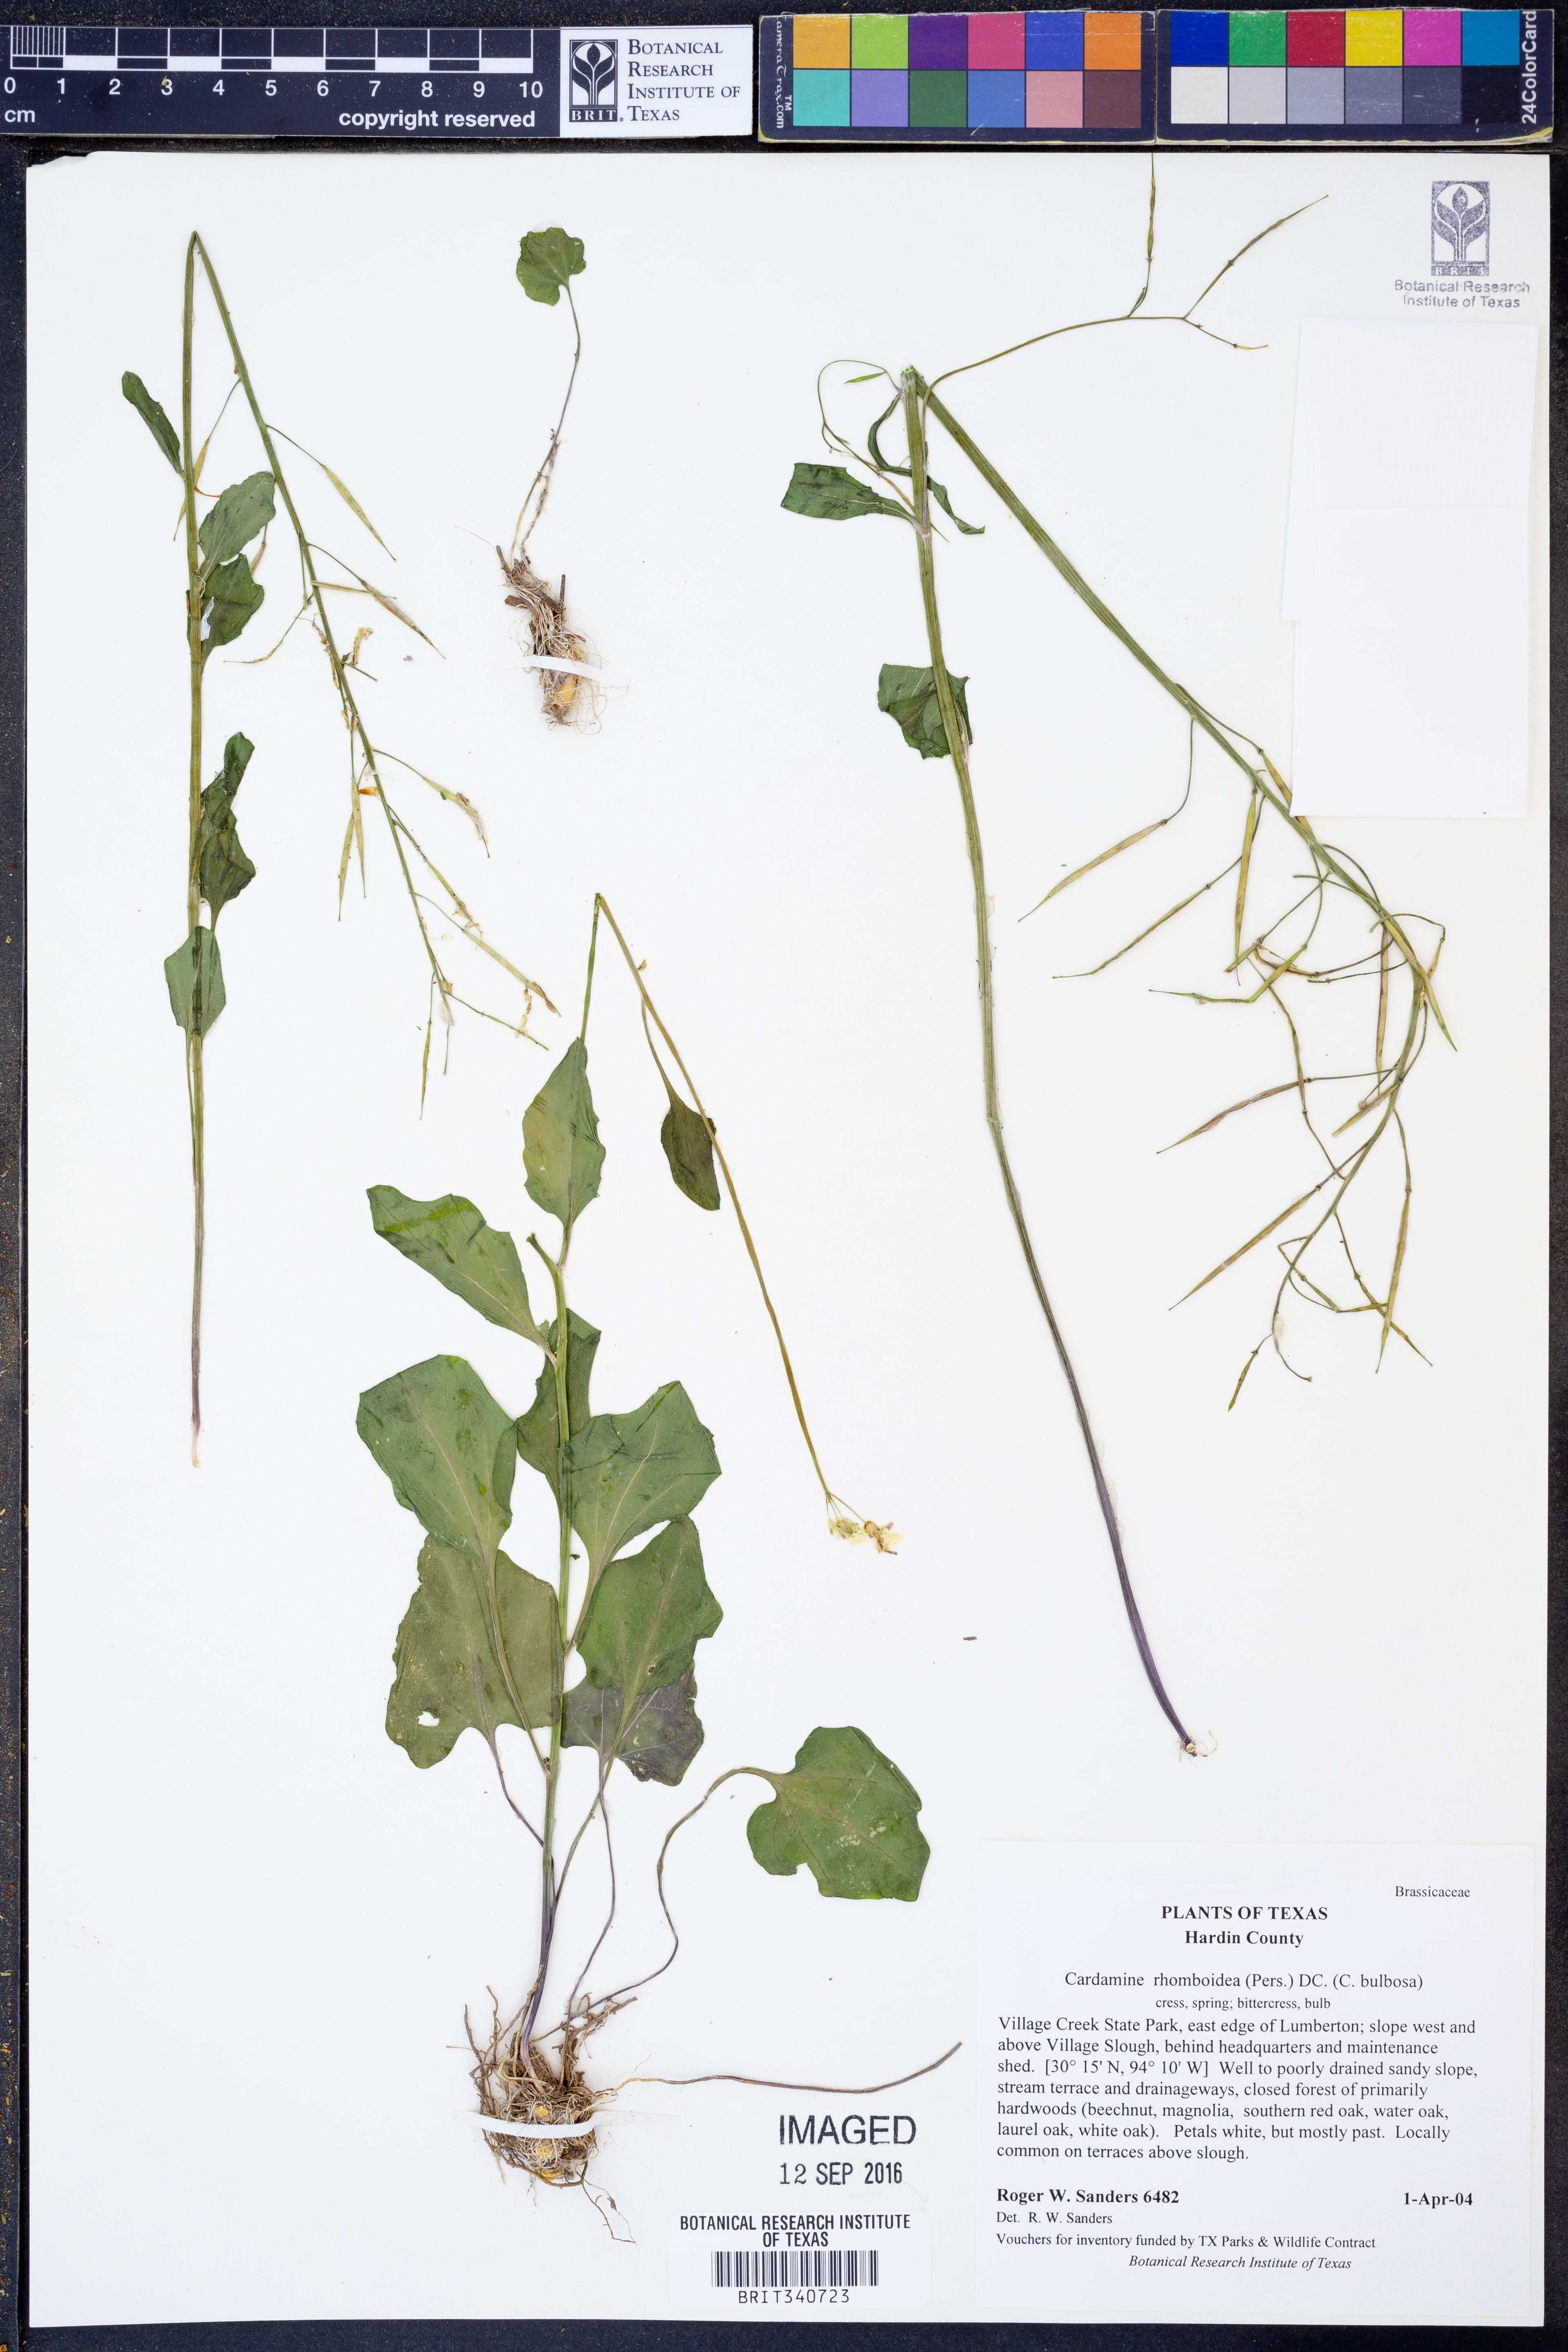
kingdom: Plantae
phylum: Tracheophyta
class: Magnoliopsida
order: Brassicales
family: Brassicaceae
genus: Cardamine
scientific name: Cardamine bulbosa
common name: Spring cress
